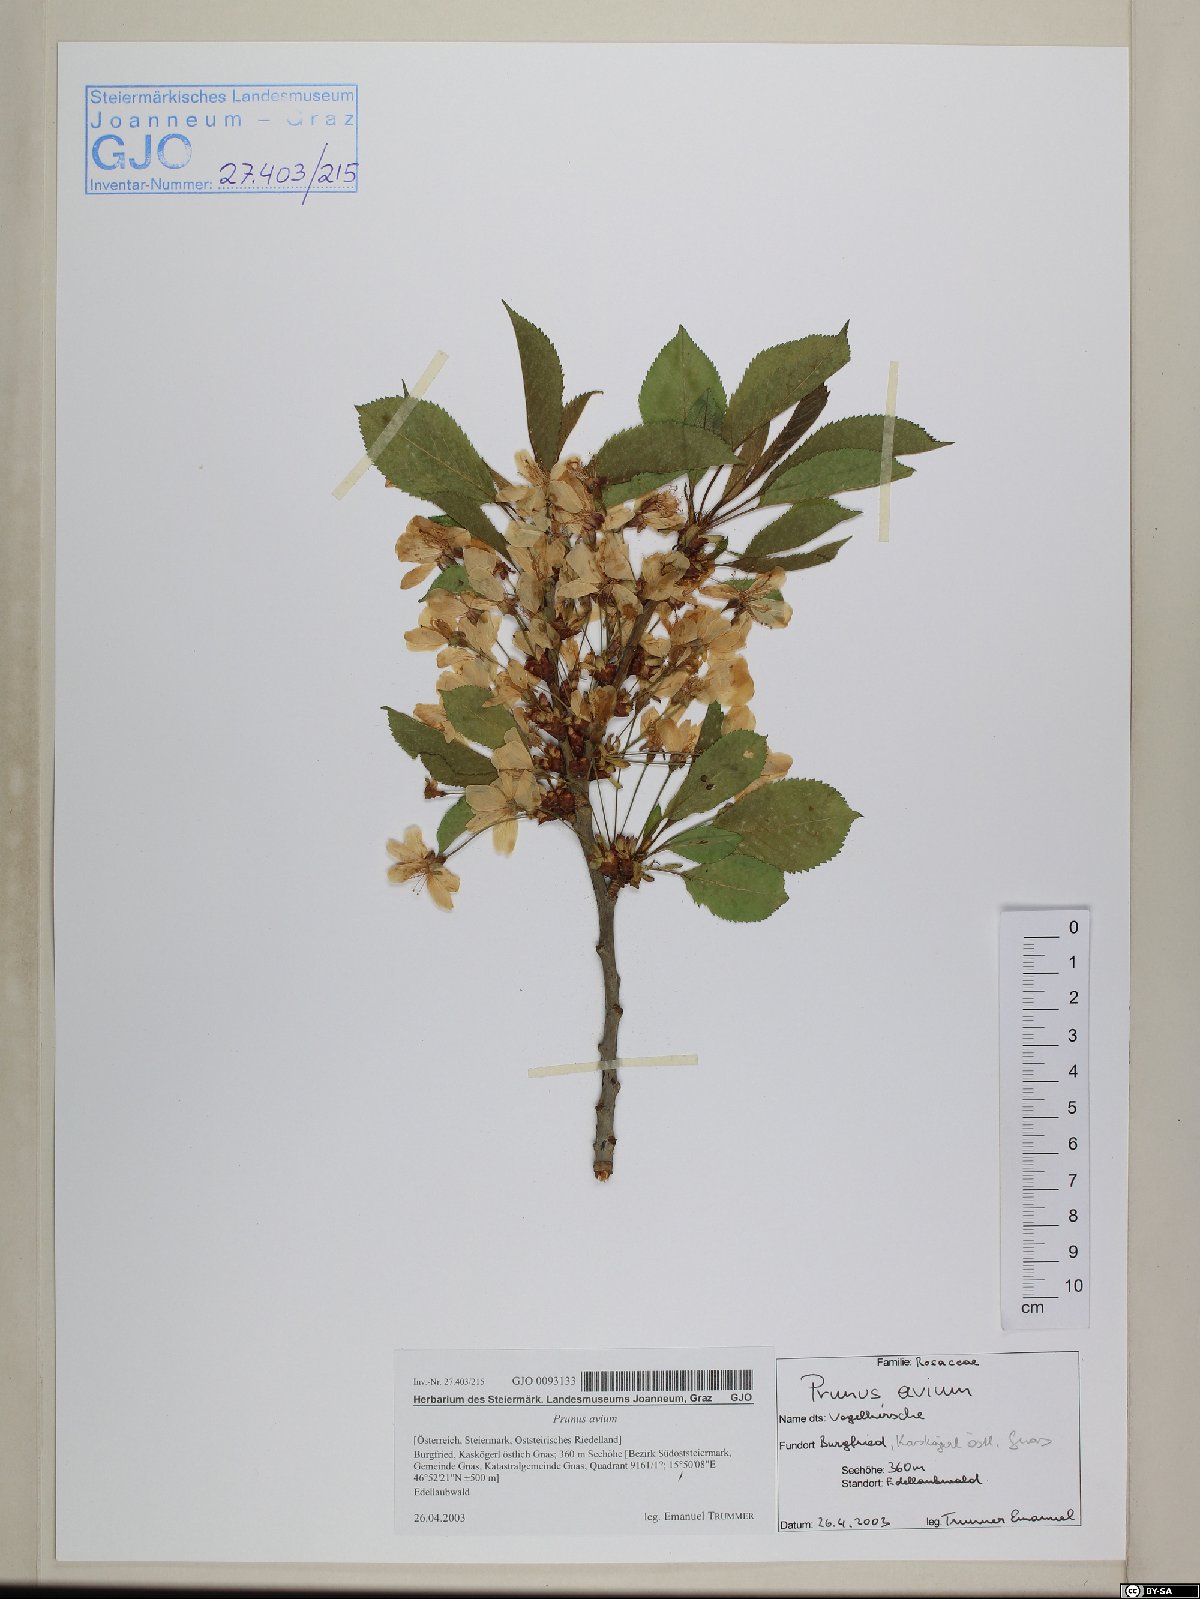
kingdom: Plantae
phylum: Tracheophyta
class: Magnoliopsida
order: Rosales
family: Rosaceae
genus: Prunus
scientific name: Prunus avium
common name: Sweet cherry
